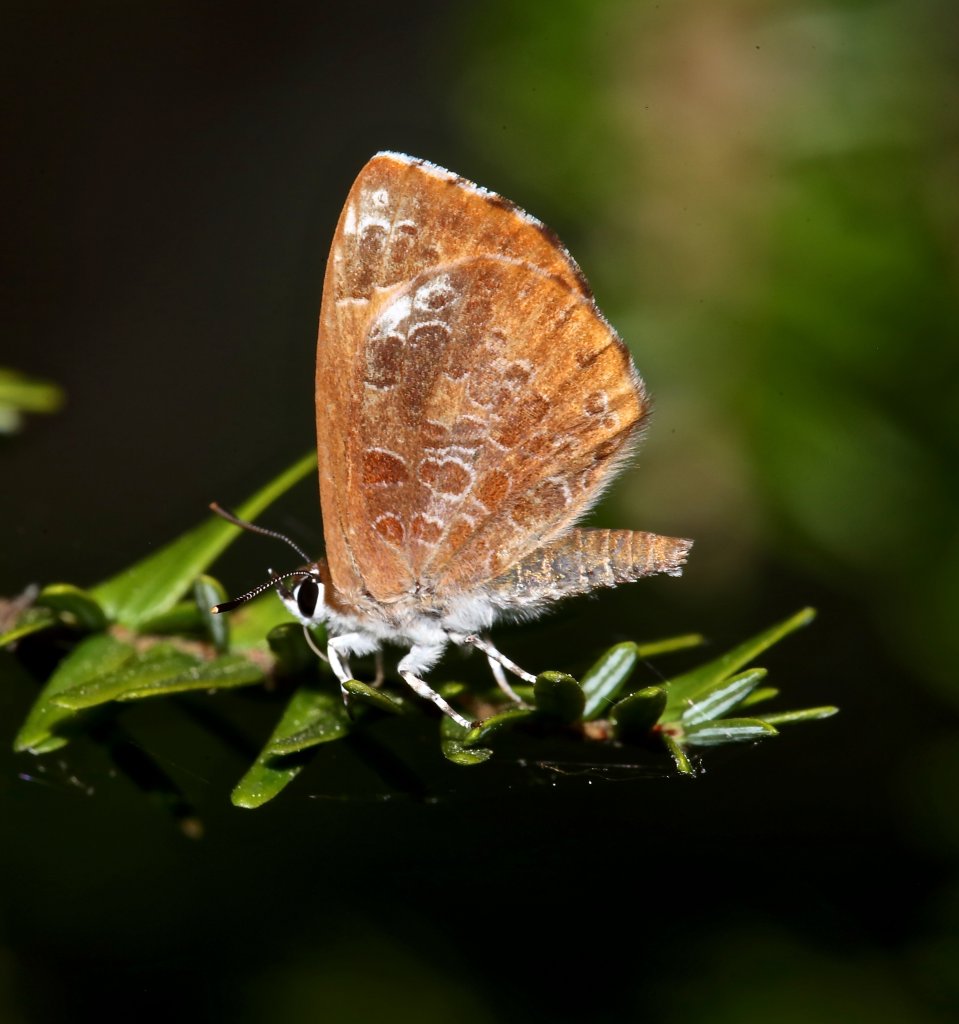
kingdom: Animalia
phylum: Arthropoda
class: Insecta
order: Lepidoptera
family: Lycaenidae
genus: Feniseca
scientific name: Feniseca tarquinius
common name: Harvester
